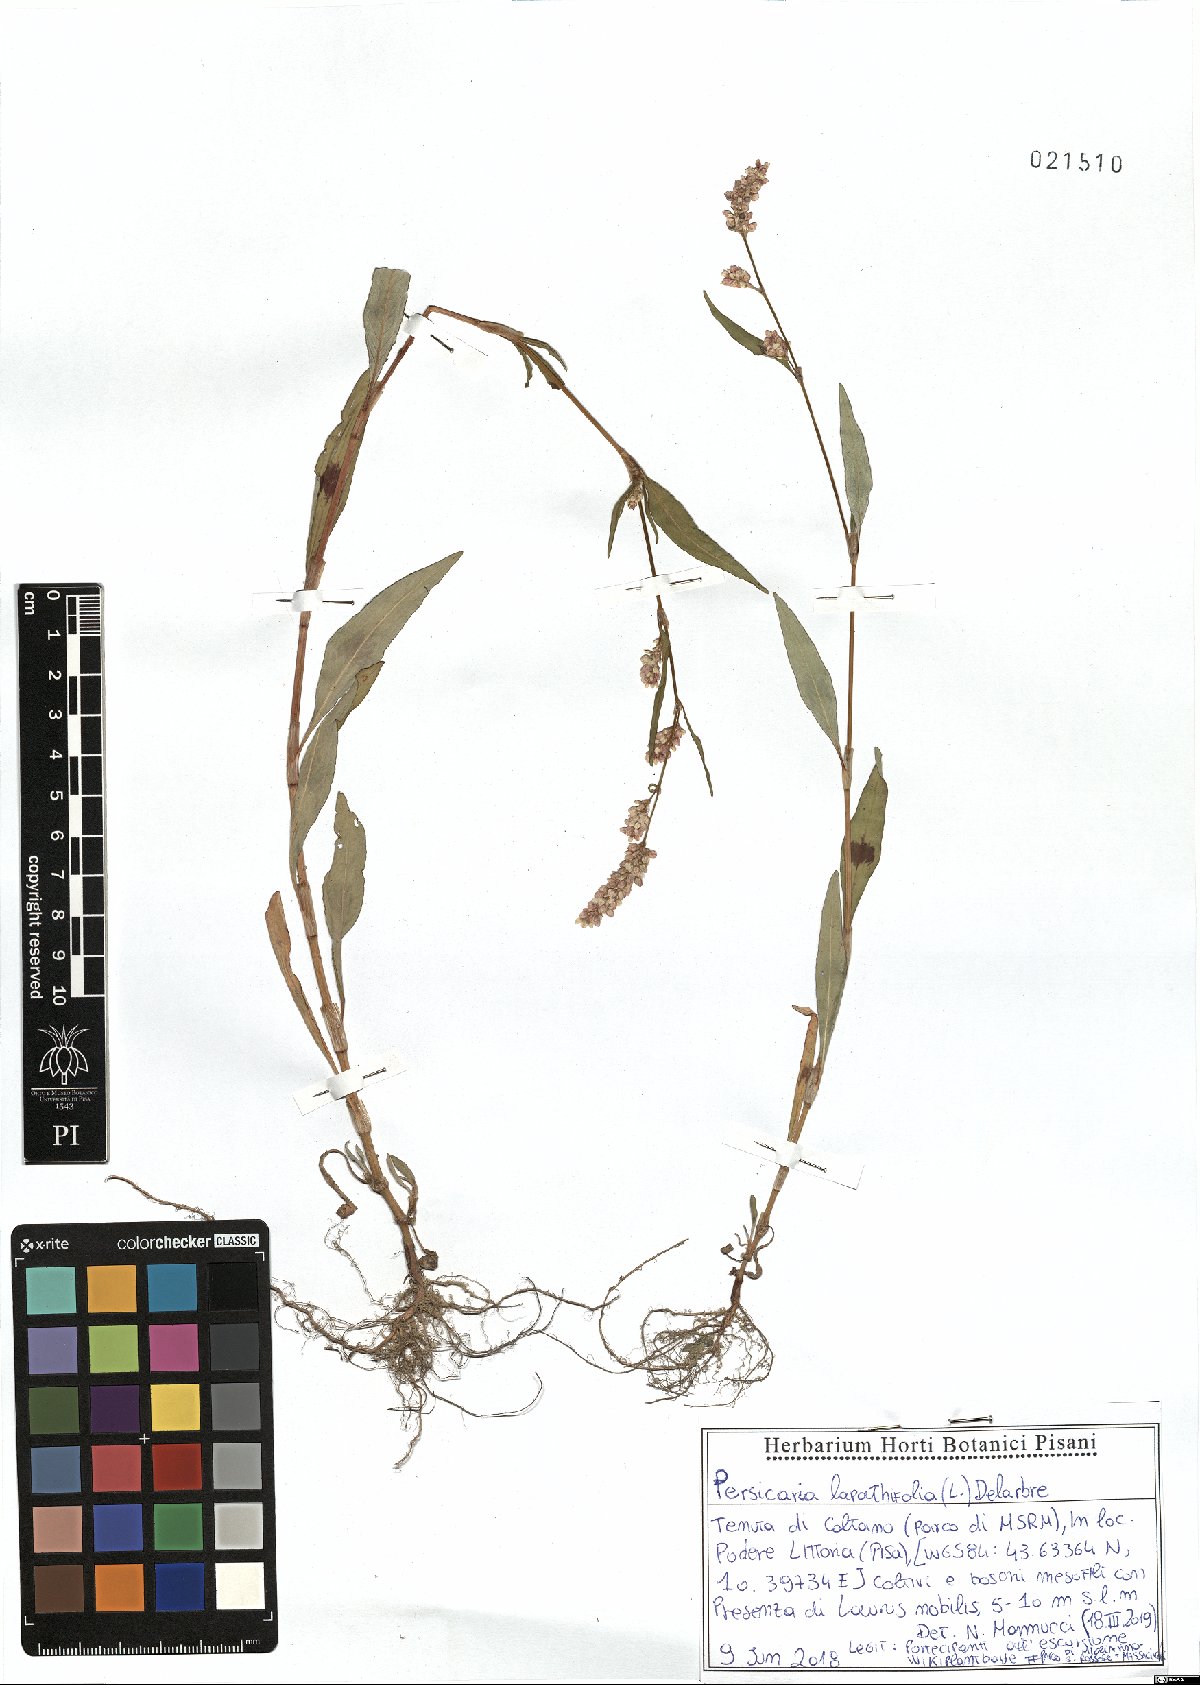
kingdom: Plantae
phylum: Tracheophyta
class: Magnoliopsida
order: Caryophyllales
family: Polygonaceae
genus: Persicaria
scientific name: Persicaria lapathifolia
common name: Curlytop knotweed
